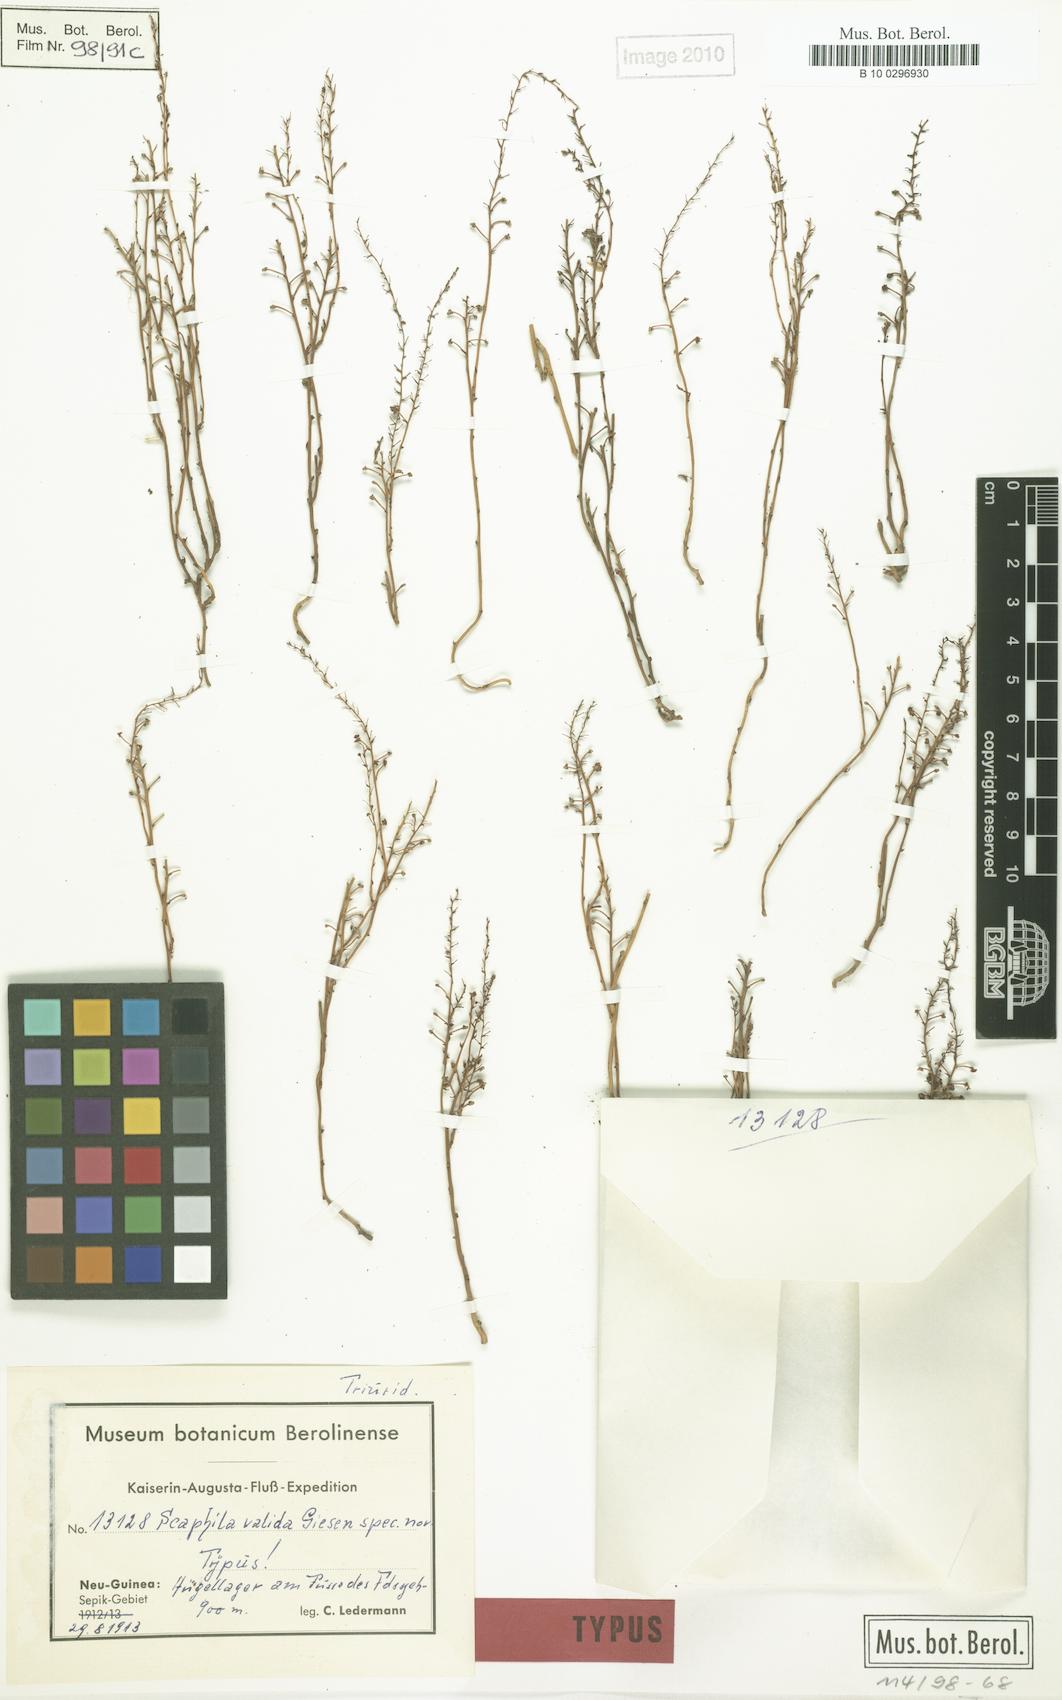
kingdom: Plantae
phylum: Tracheophyta
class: Liliopsida
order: Pandanales
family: Triuridaceae
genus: Sciaphila
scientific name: Sciaphila arfakiana
